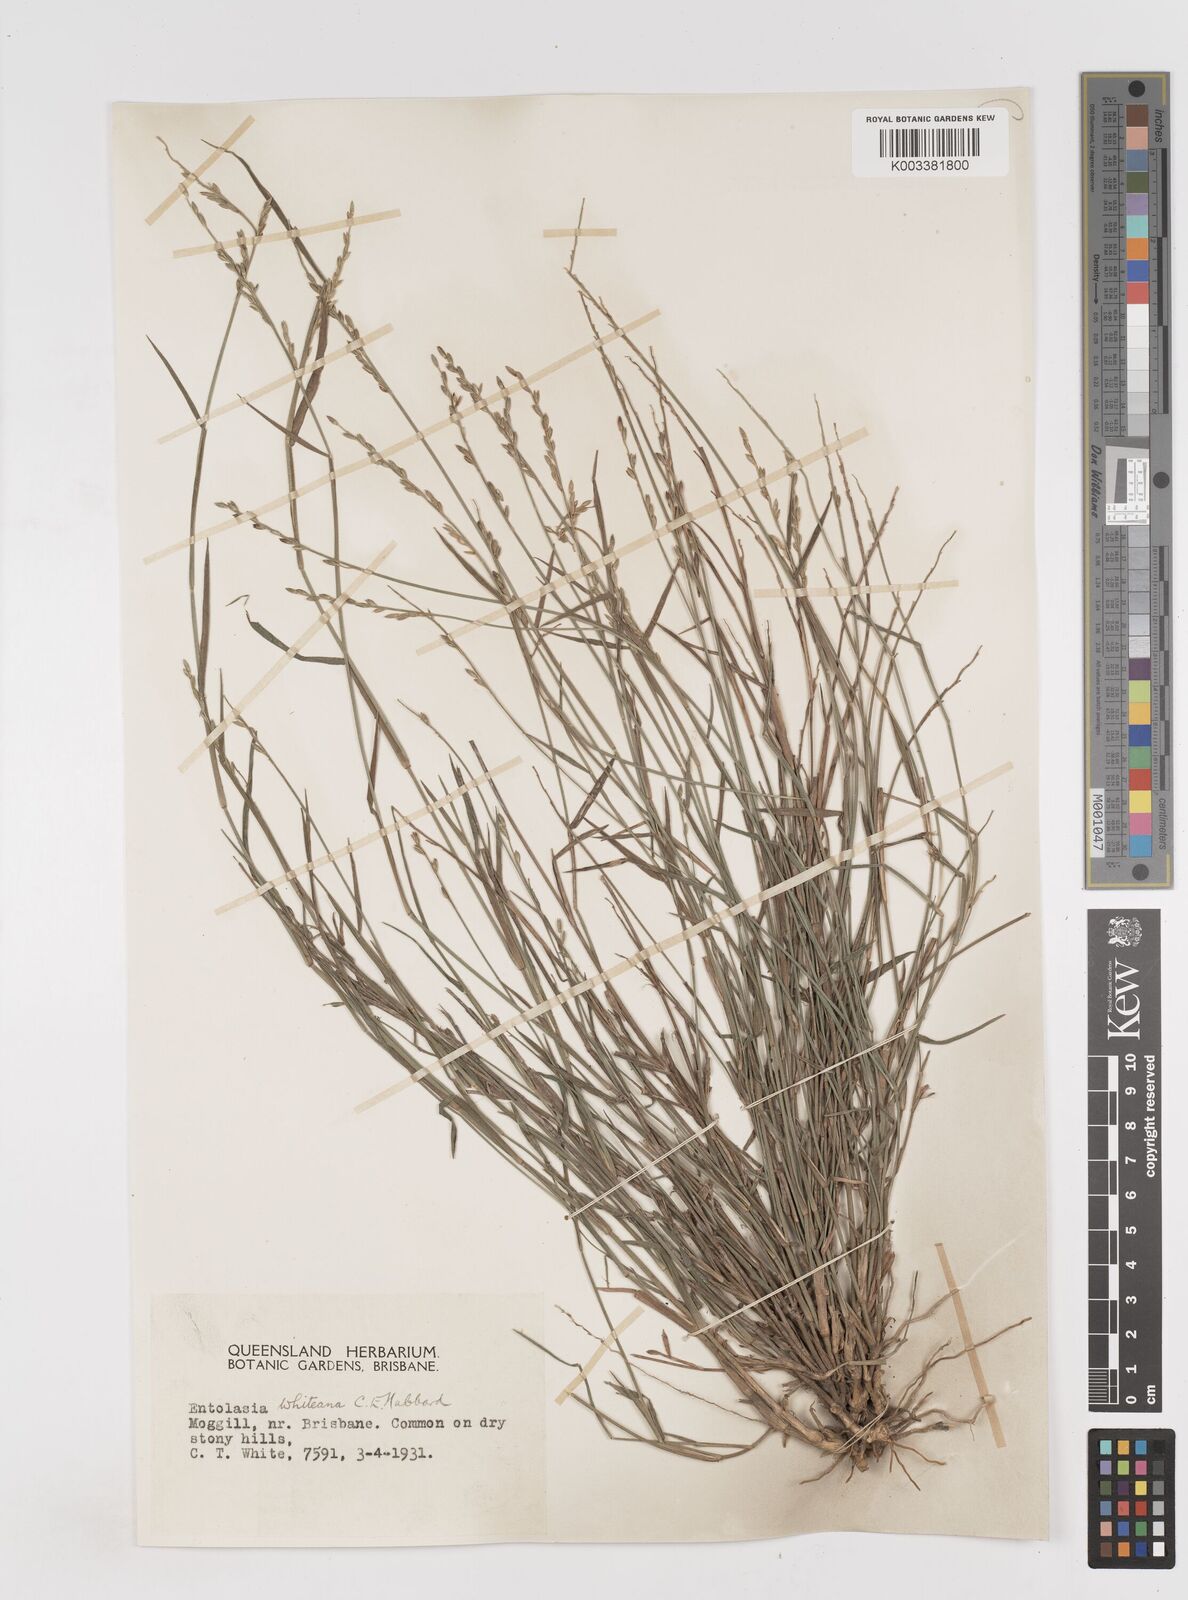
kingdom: Plantae
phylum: Tracheophyta
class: Liliopsida
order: Poales
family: Poaceae
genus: Entolasia
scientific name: Entolasia whiteana
